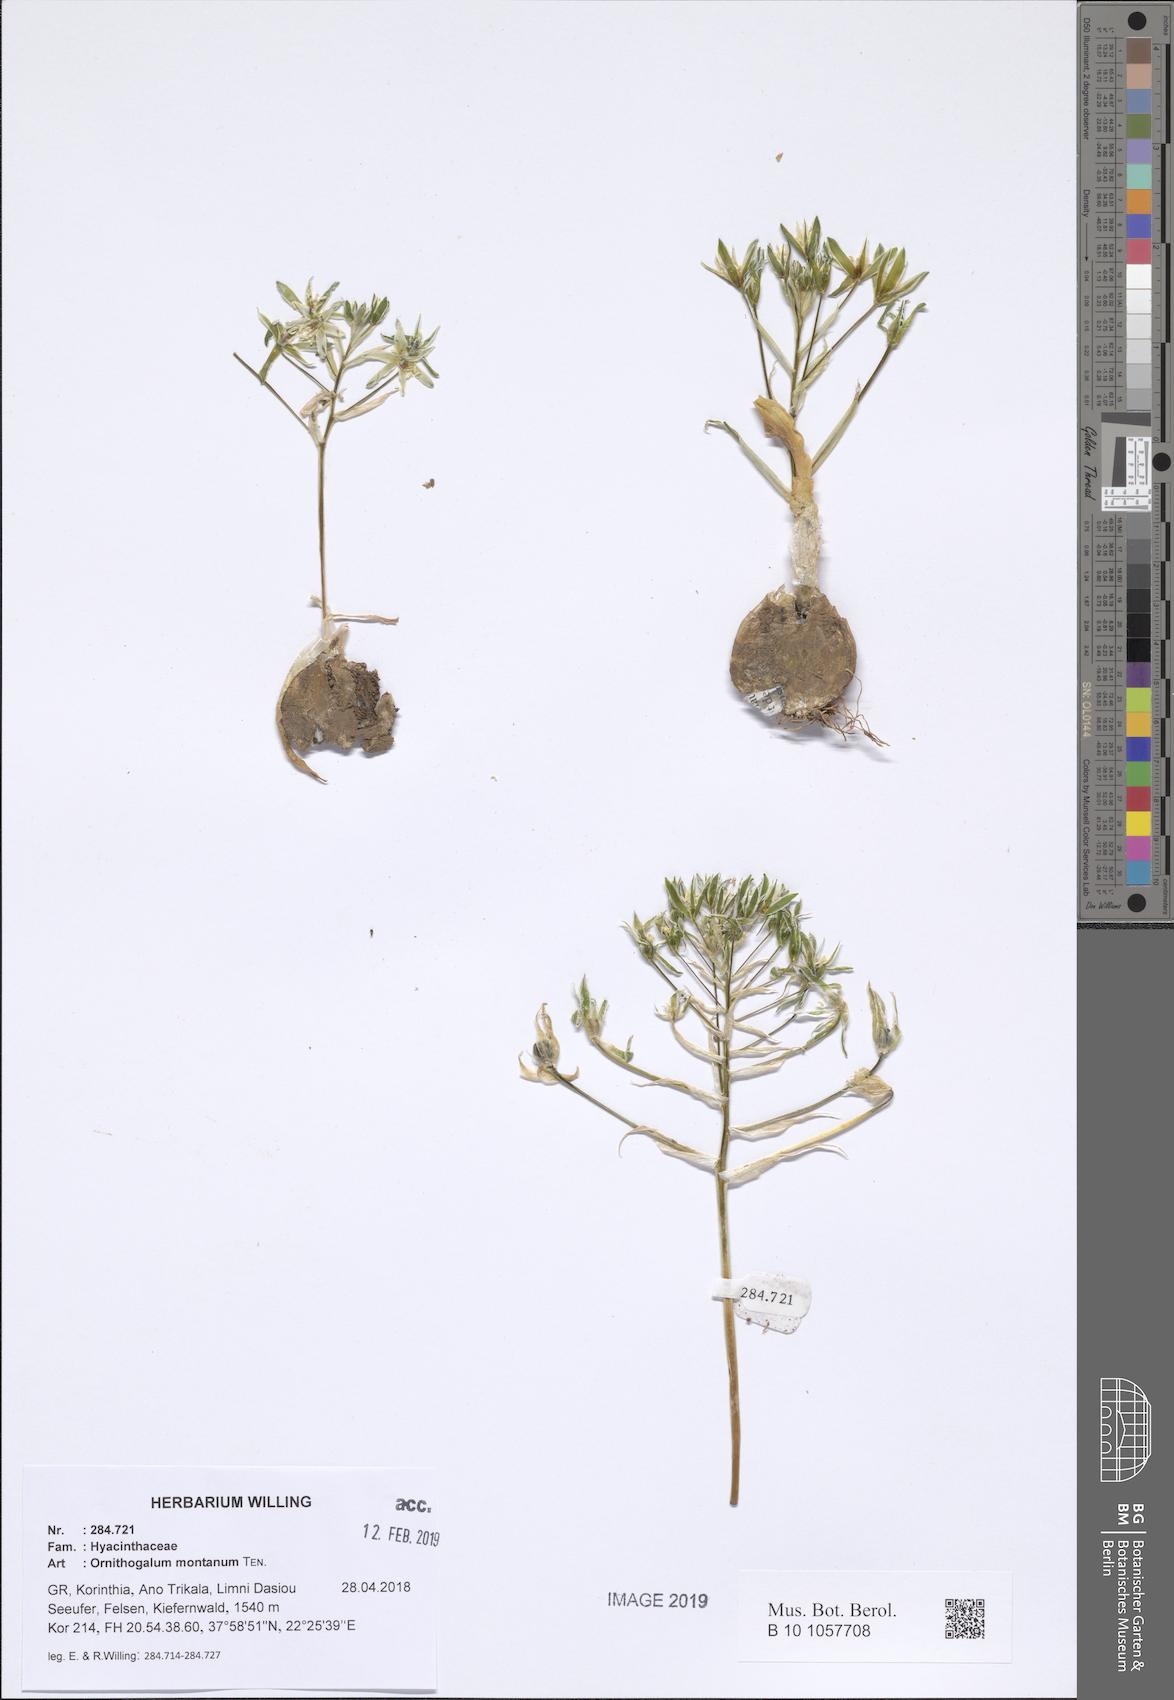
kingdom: Plantae
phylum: Tracheophyta
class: Liliopsida
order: Asparagales
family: Asparagaceae
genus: Ornithogalum
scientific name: Ornithogalum montanum
